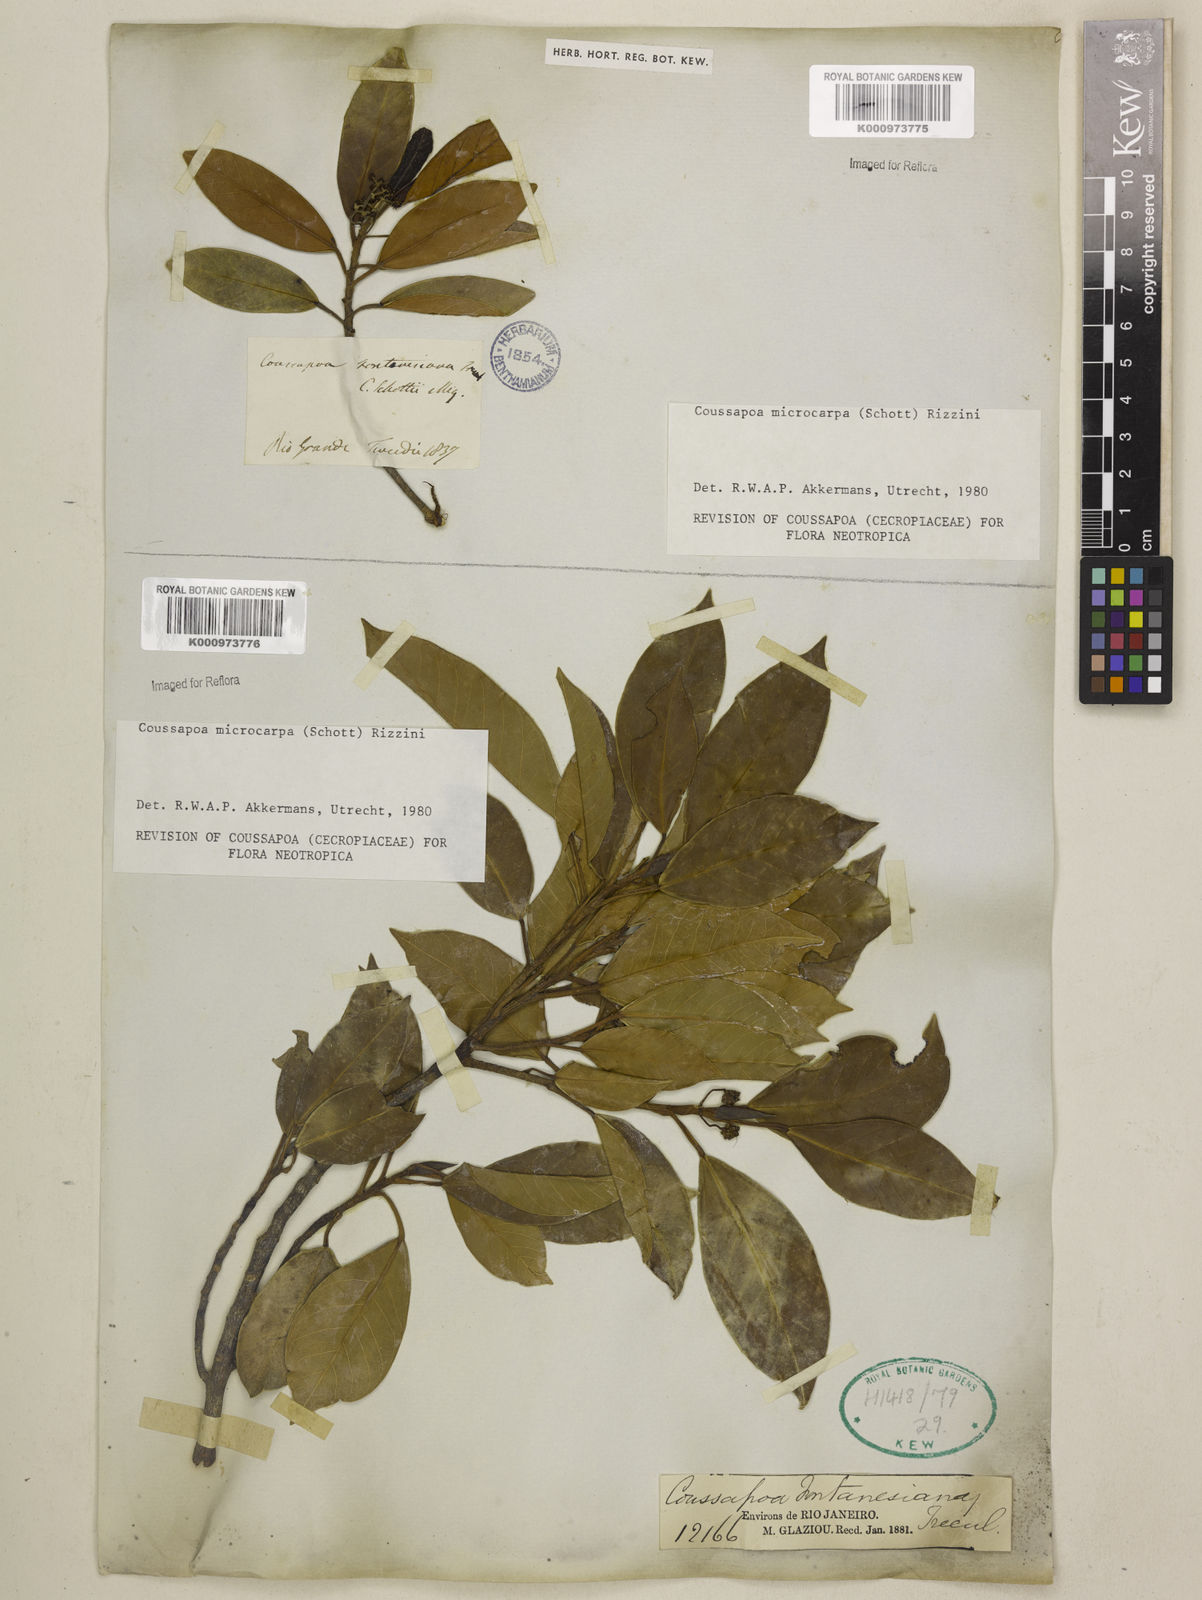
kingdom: Plantae
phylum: Tracheophyta
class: Magnoliopsida
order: Rosales
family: Urticaceae
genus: Coussapoa
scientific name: Coussapoa microcarpa
